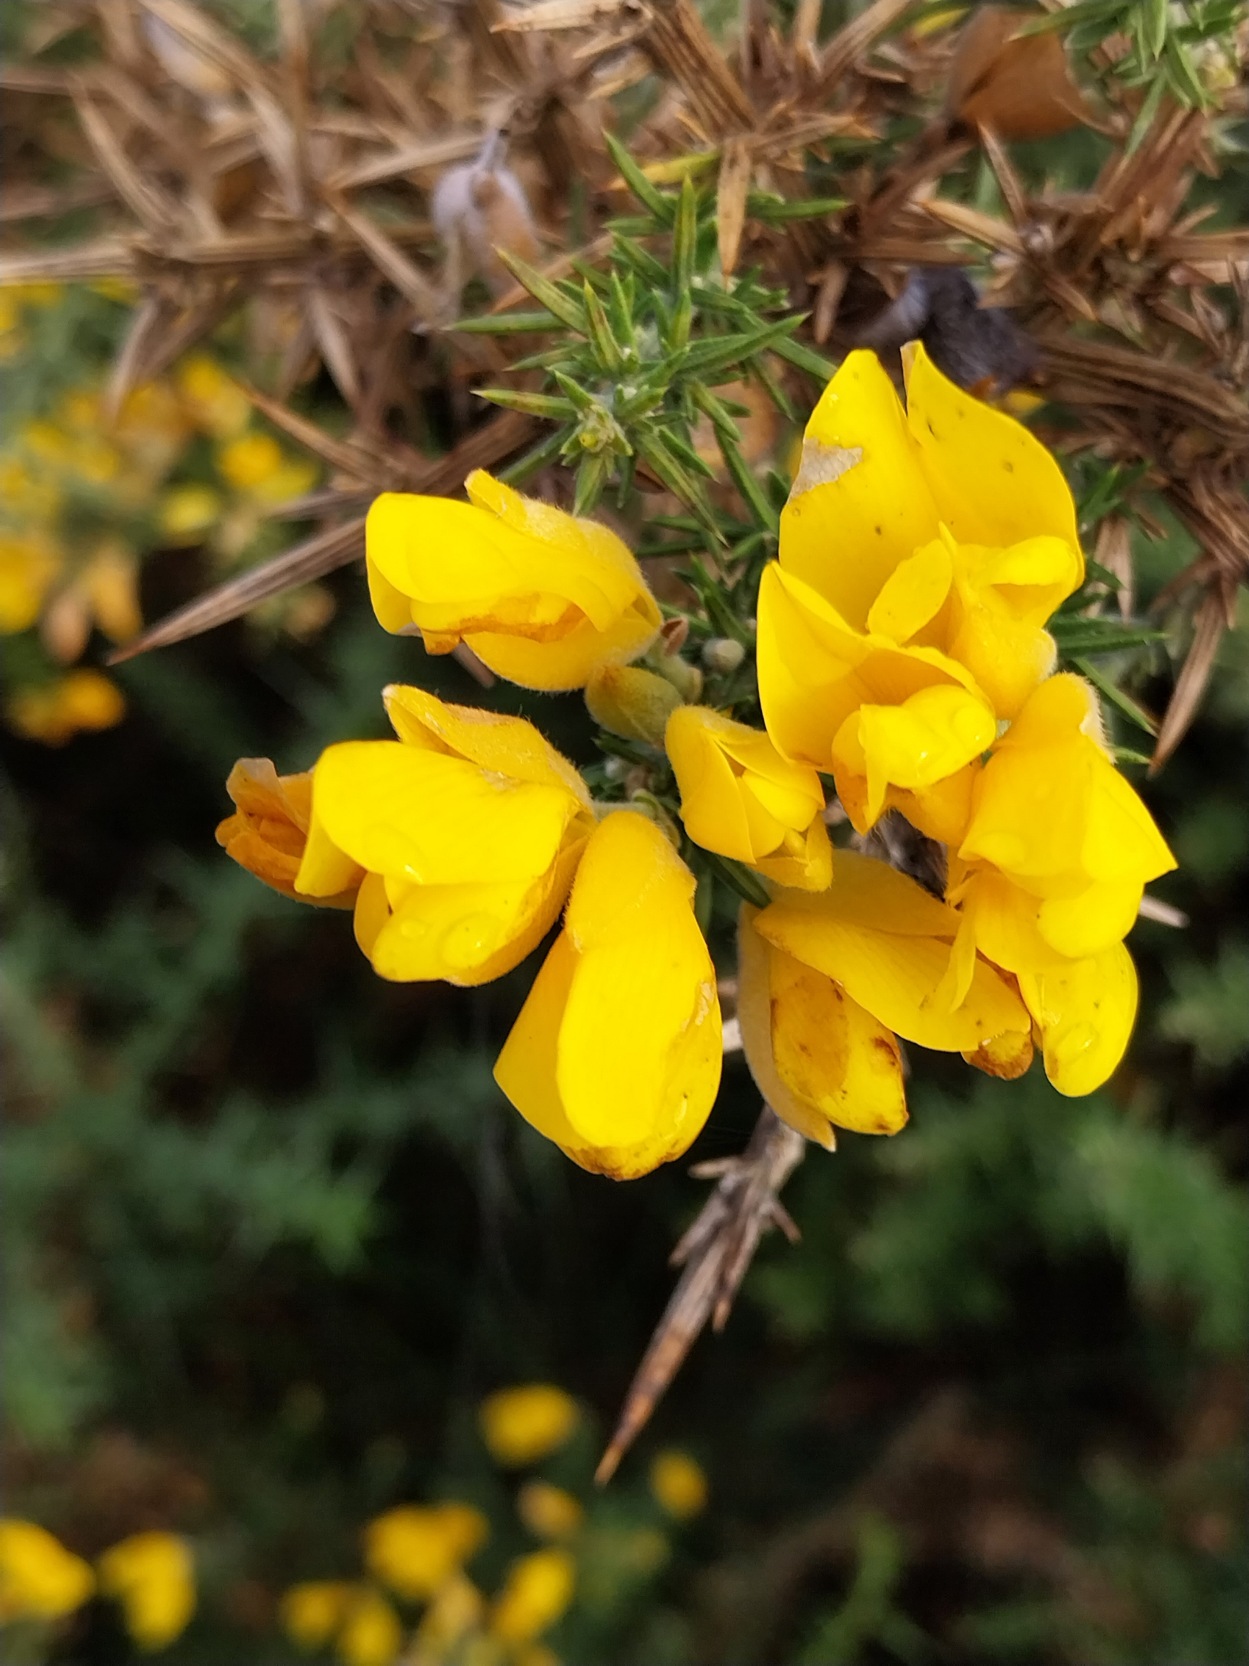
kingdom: Plantae
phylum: Tracheophyta
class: Magnoliopsida
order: Fabales
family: Fabaceae
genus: Ulex
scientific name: Ulex europaeus
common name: Tornblad
